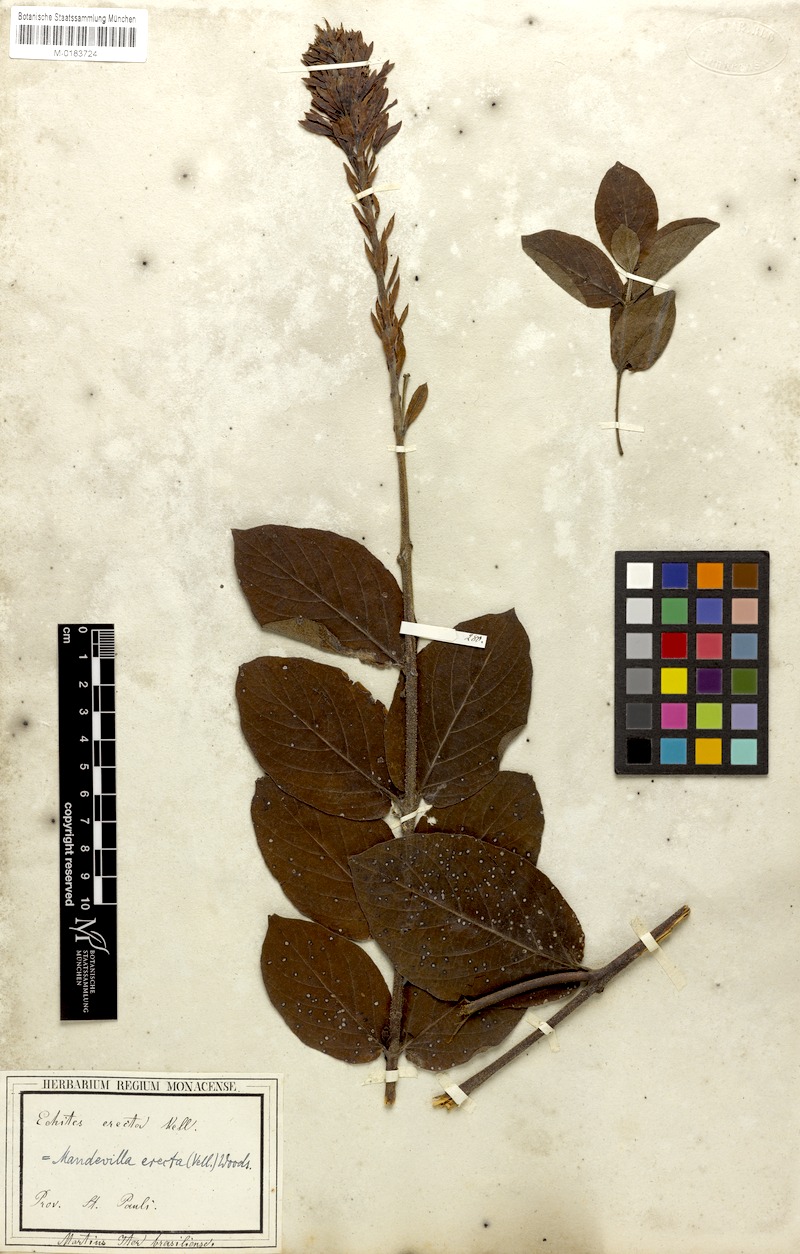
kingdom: Plantae
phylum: Tracheophyta
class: Magnoliopsida
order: Gentianales
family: Apocynaceae
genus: Mandevilla
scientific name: Mandevilla emarginata
